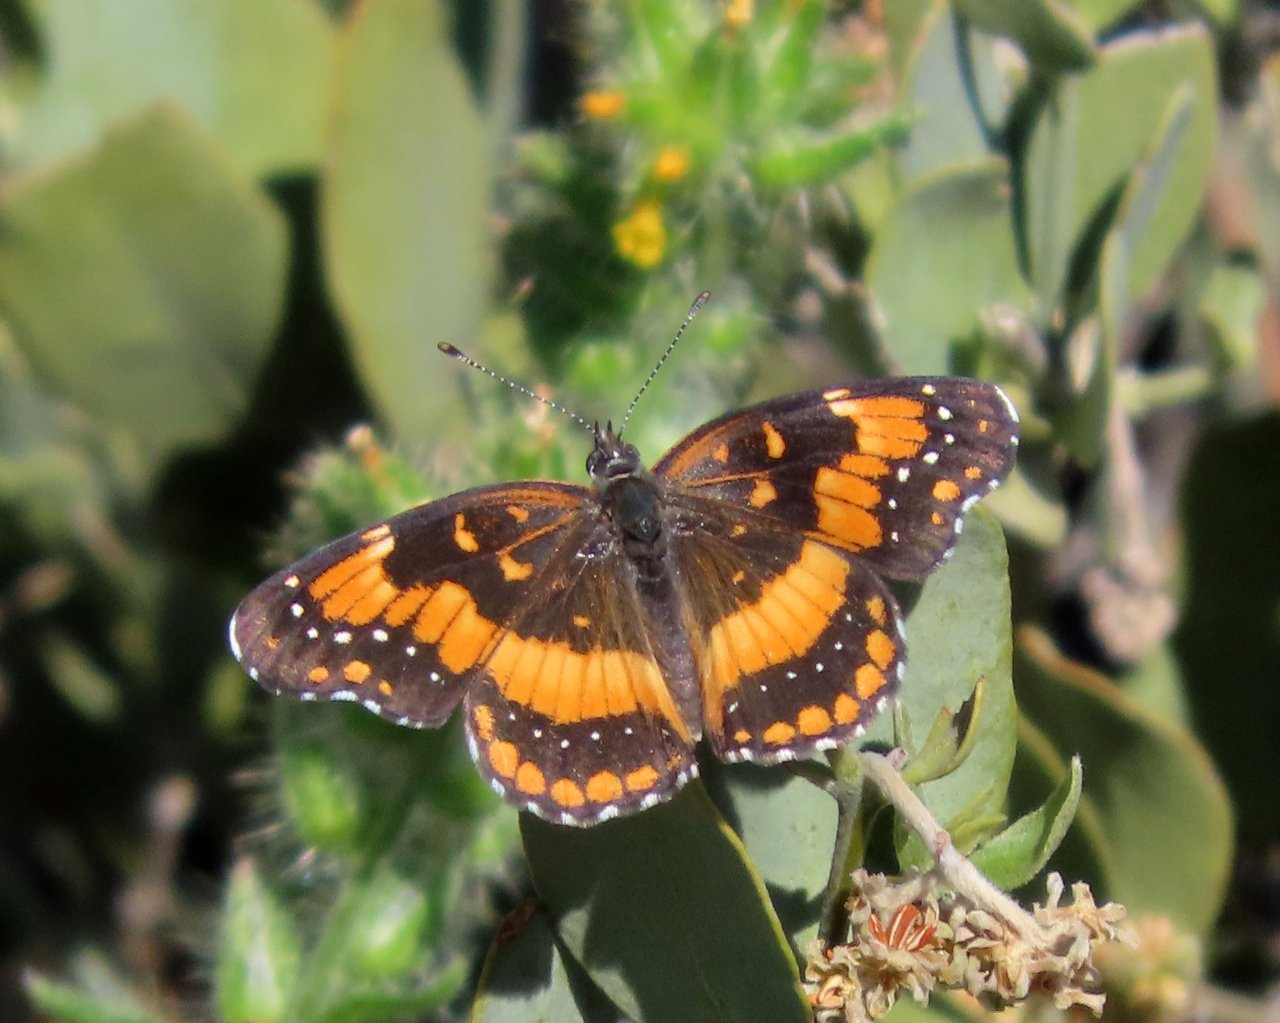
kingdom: Animalia
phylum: Arthropoda
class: Insecta
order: Lepidoptera
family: Nymphalidae
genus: Chlosyne
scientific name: Chlosyne californica
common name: California Patch
